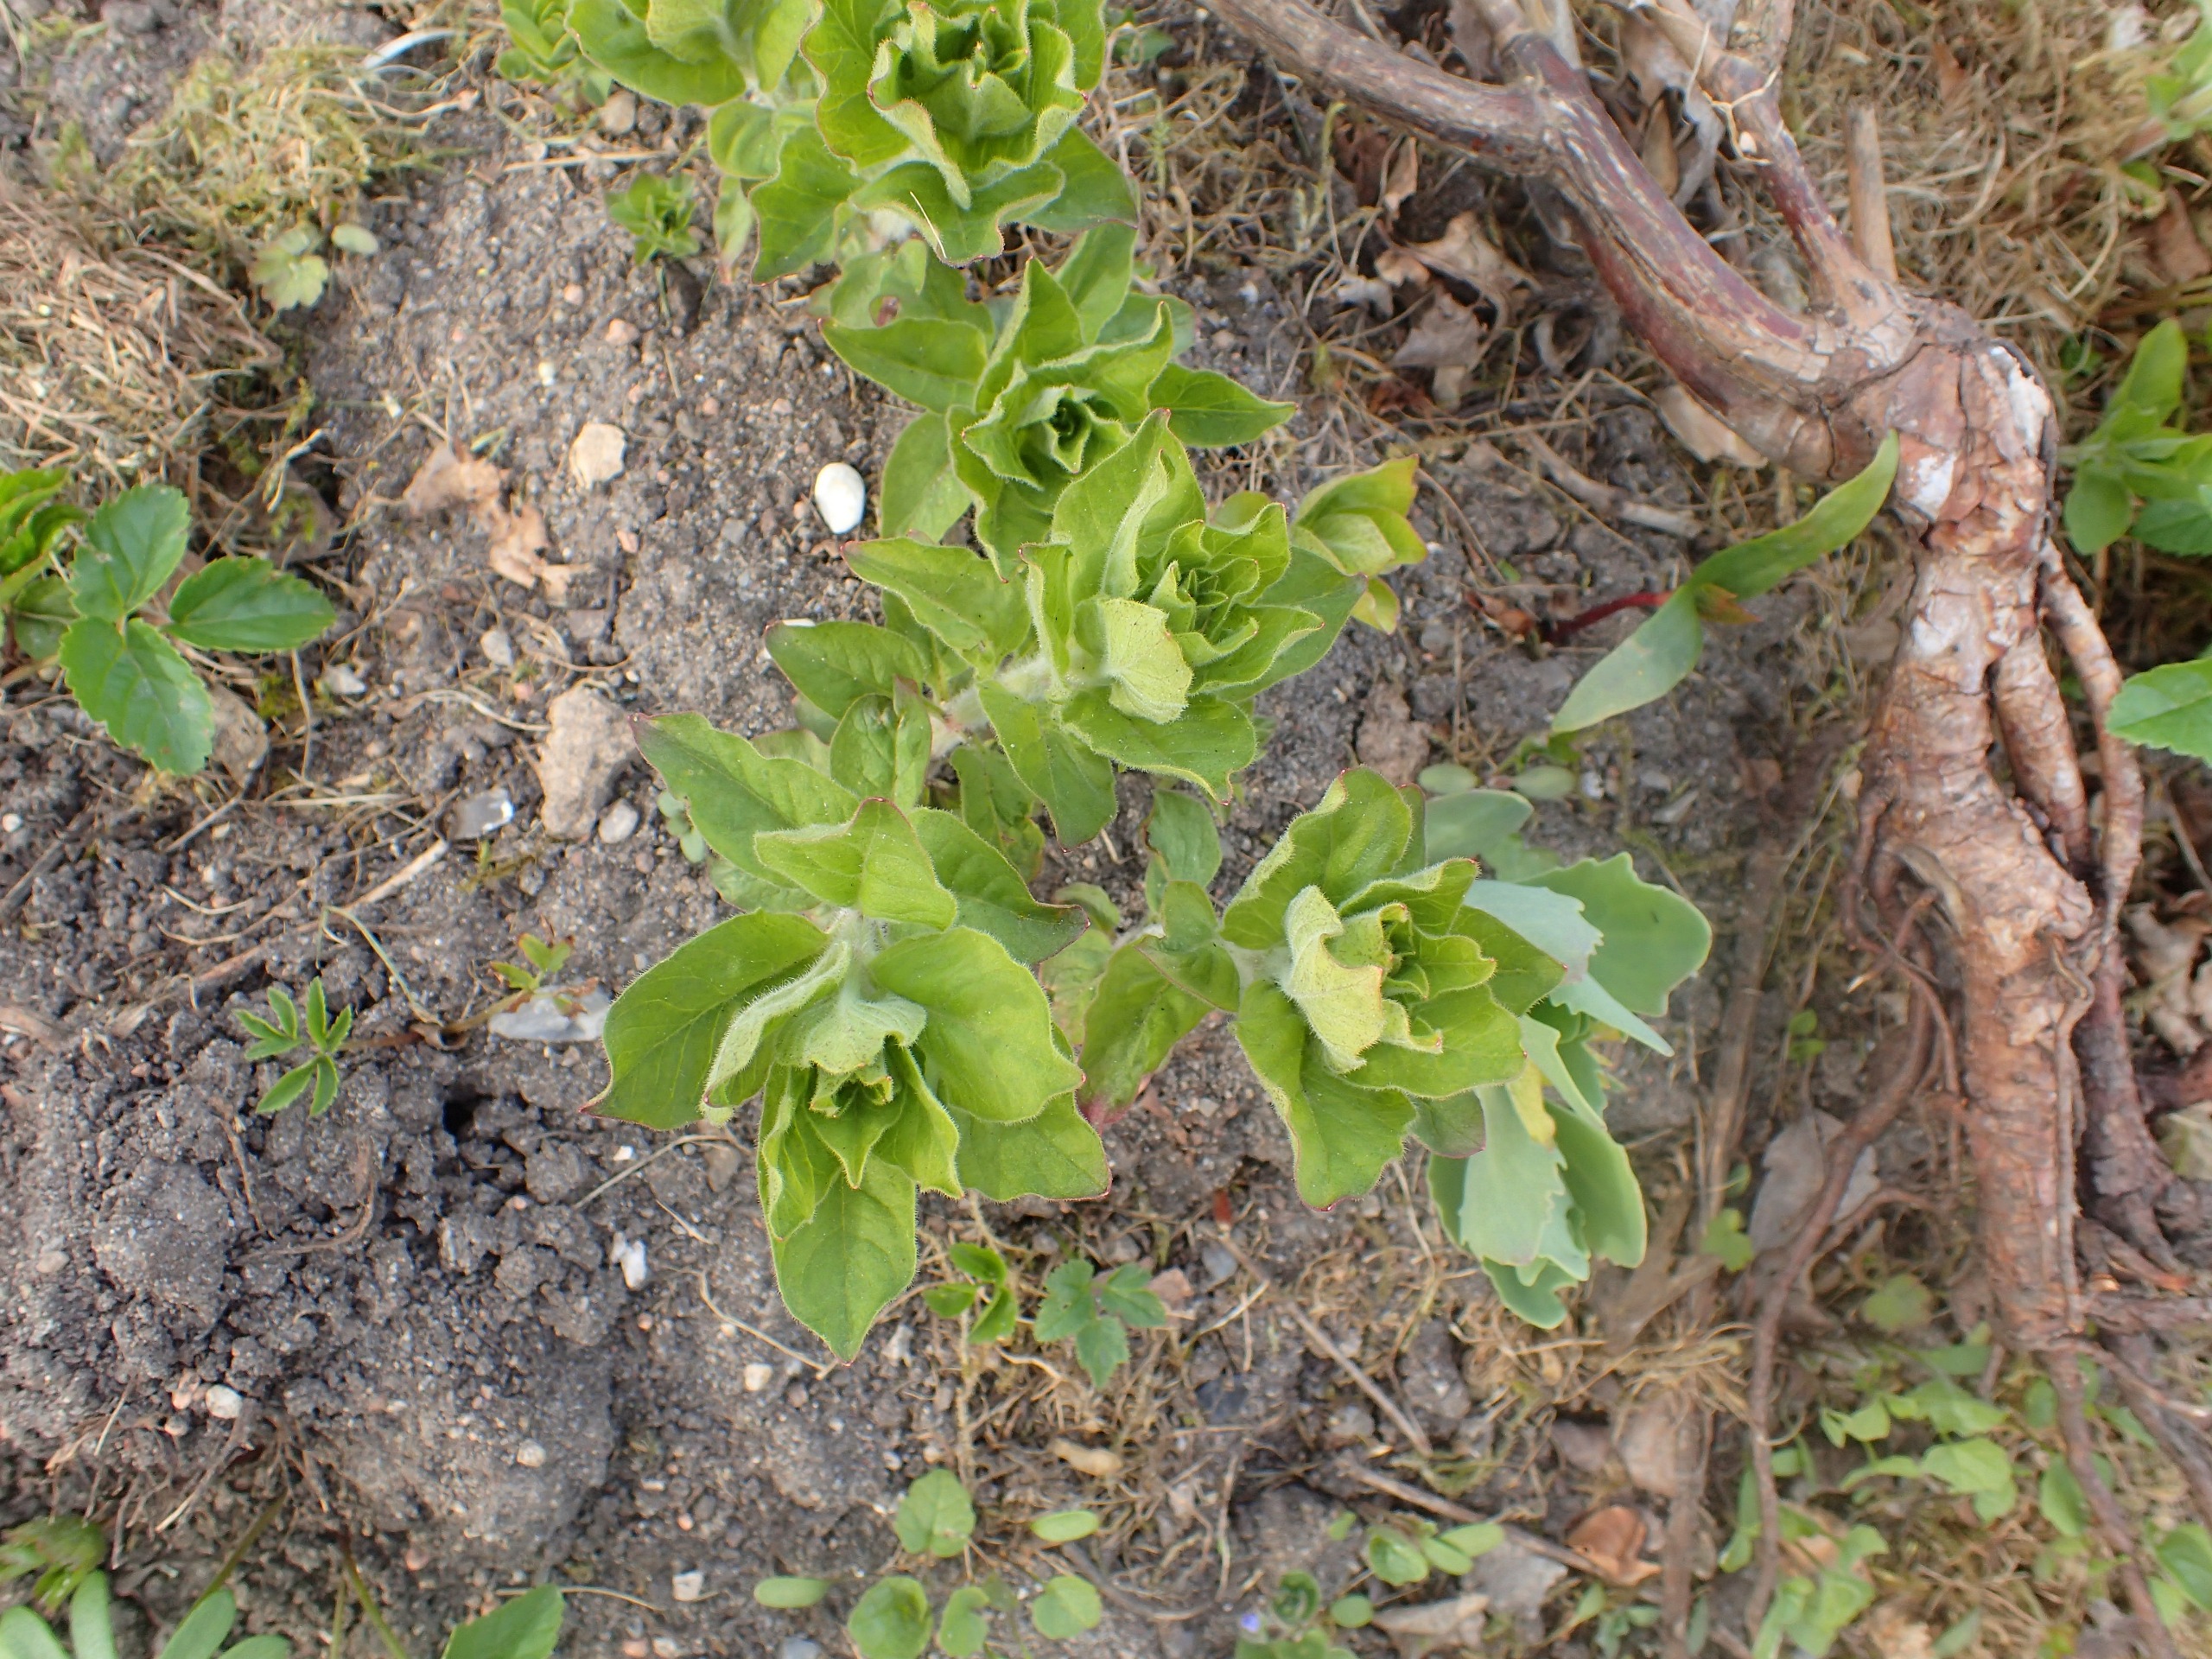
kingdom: Plantae
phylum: Tracheophyta
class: Magnoliopsida
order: Ericales
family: Primulaceae
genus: Lysimachia
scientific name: Lysimachia punctata
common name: Prikbladet fredløs
